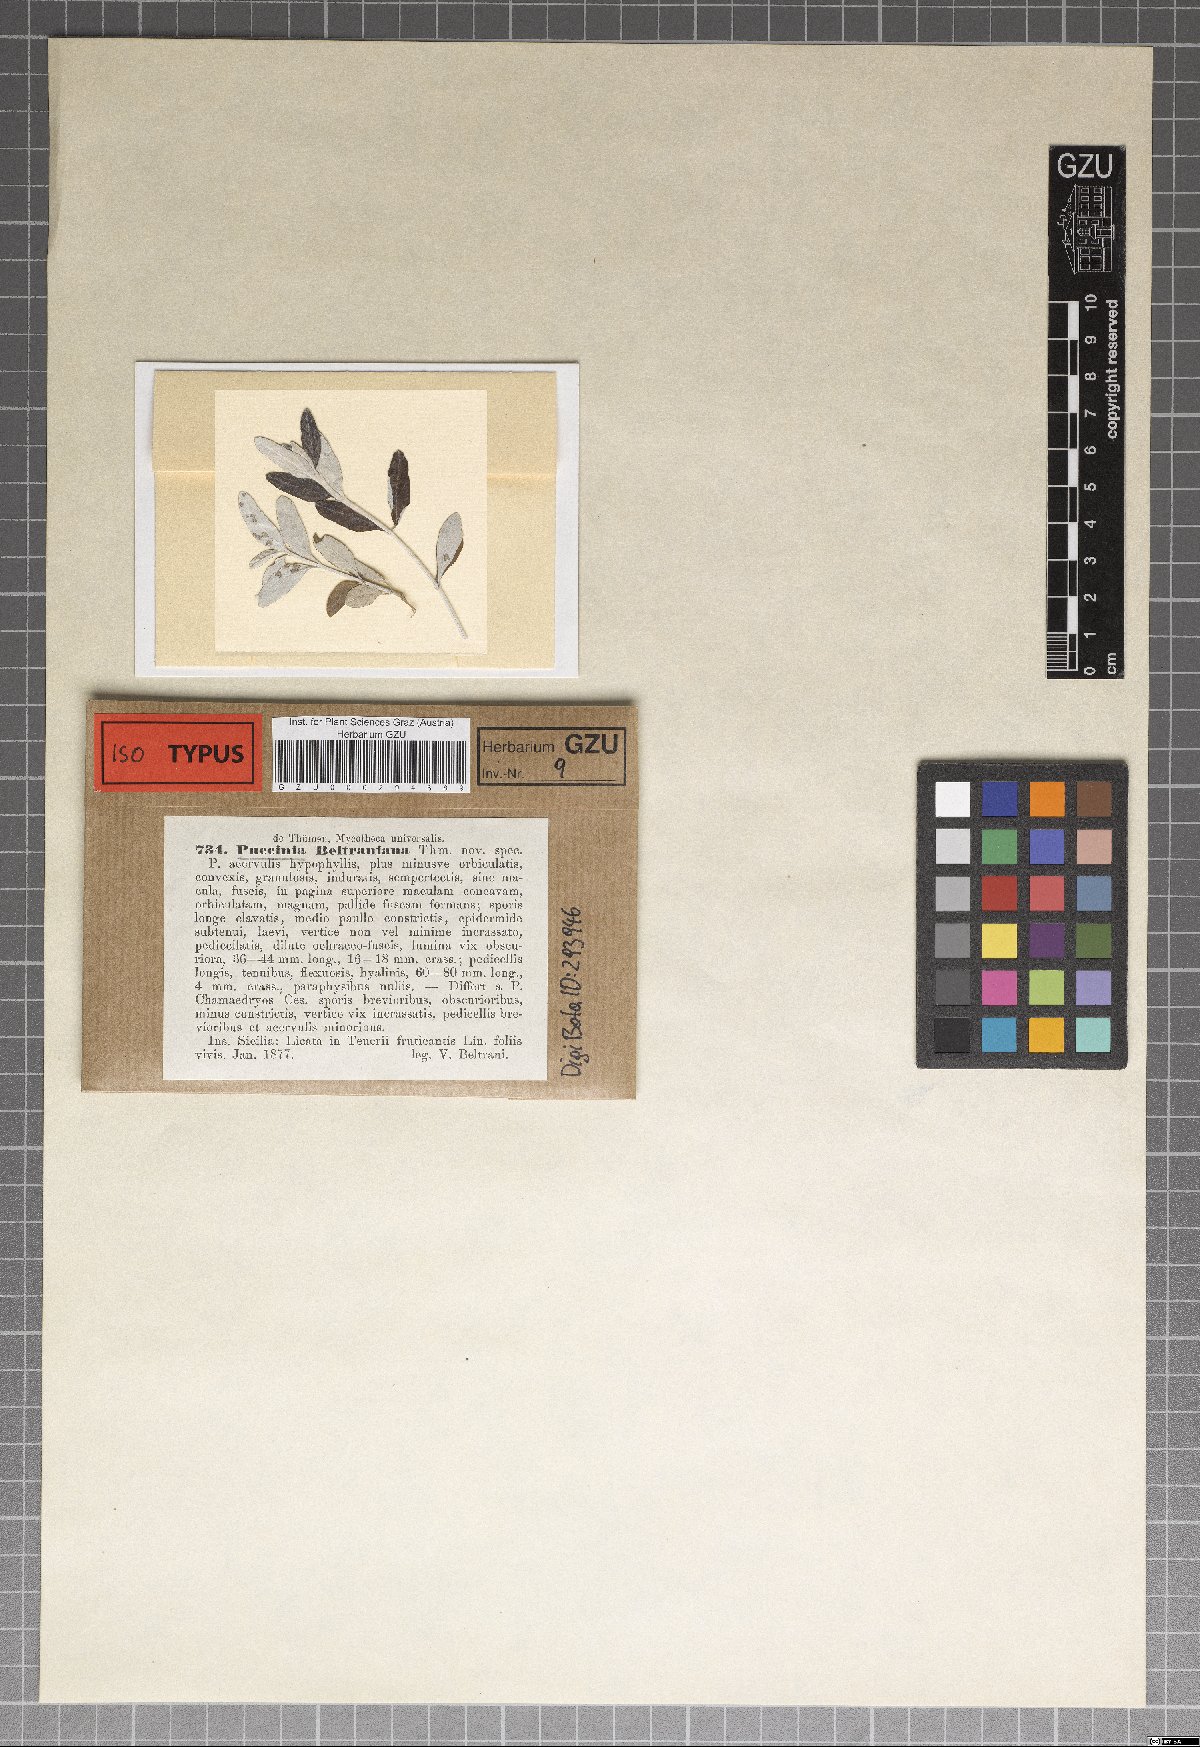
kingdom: Fungi
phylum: Basidiomycota
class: Pucciniomycetes
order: Pucciniales
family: Pucciniaceae
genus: Puccinia
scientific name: Puccinia teucrii
